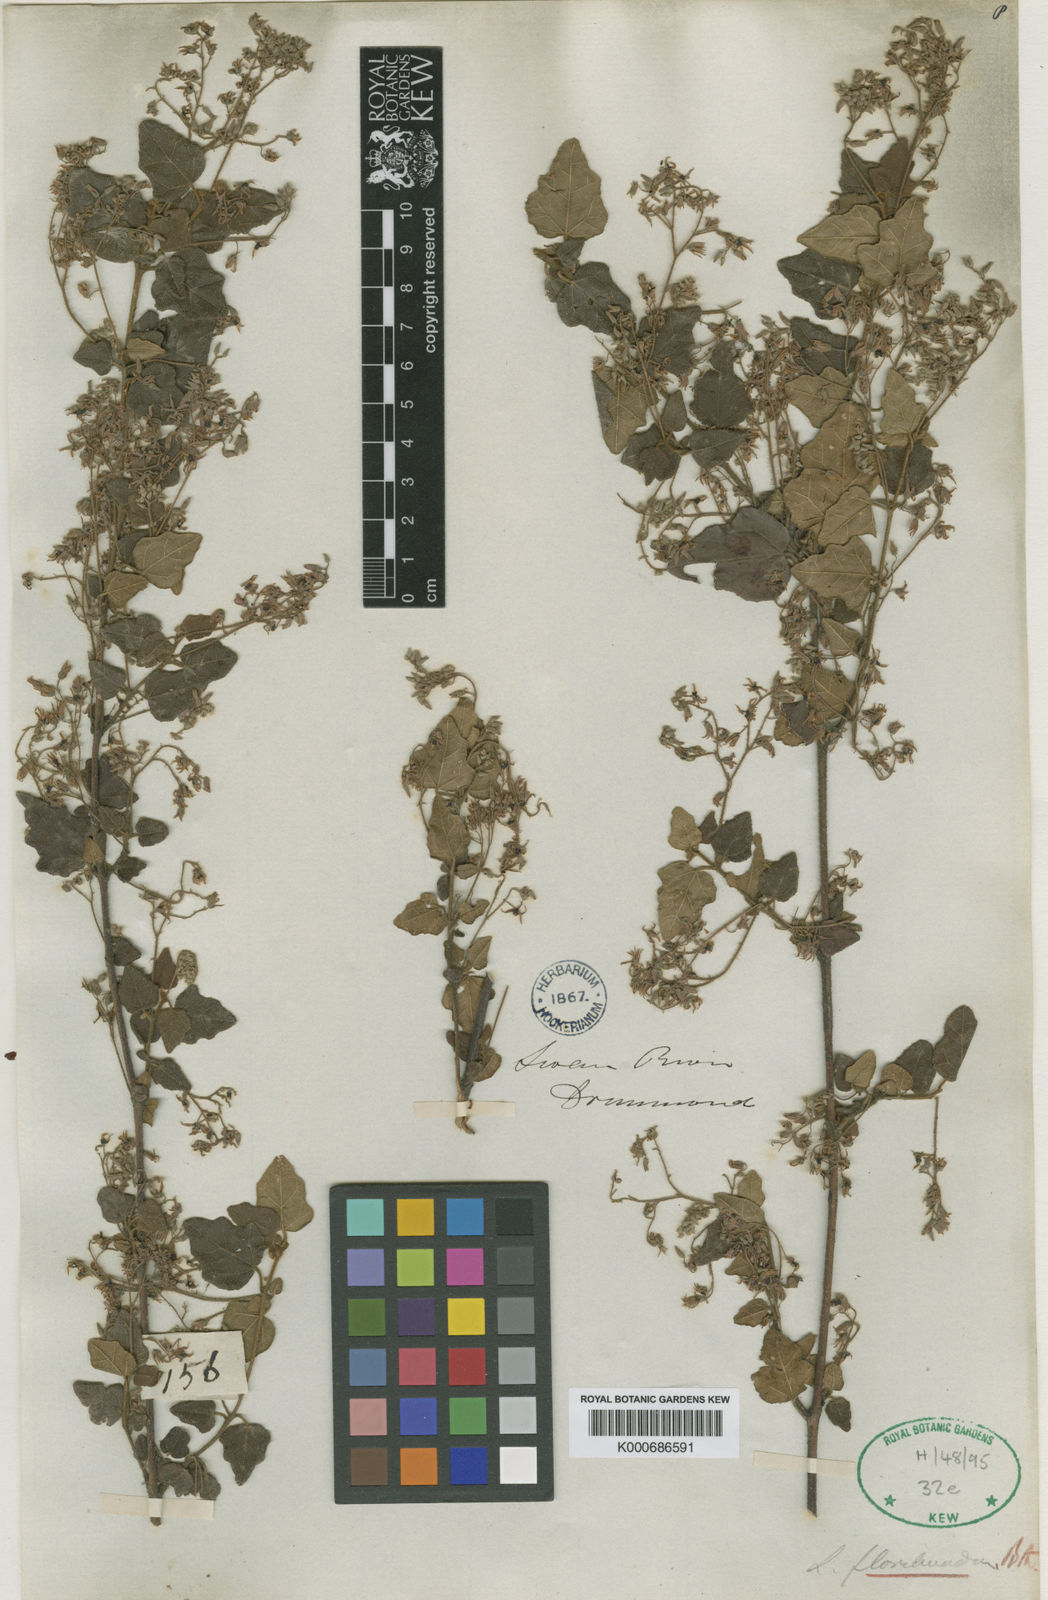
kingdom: Plantae
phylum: Tracheophyta
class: Magnoliopsida
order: Malvales
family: Malvaceae
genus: Lasiopetalum
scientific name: Lasiopetalum floribundum
